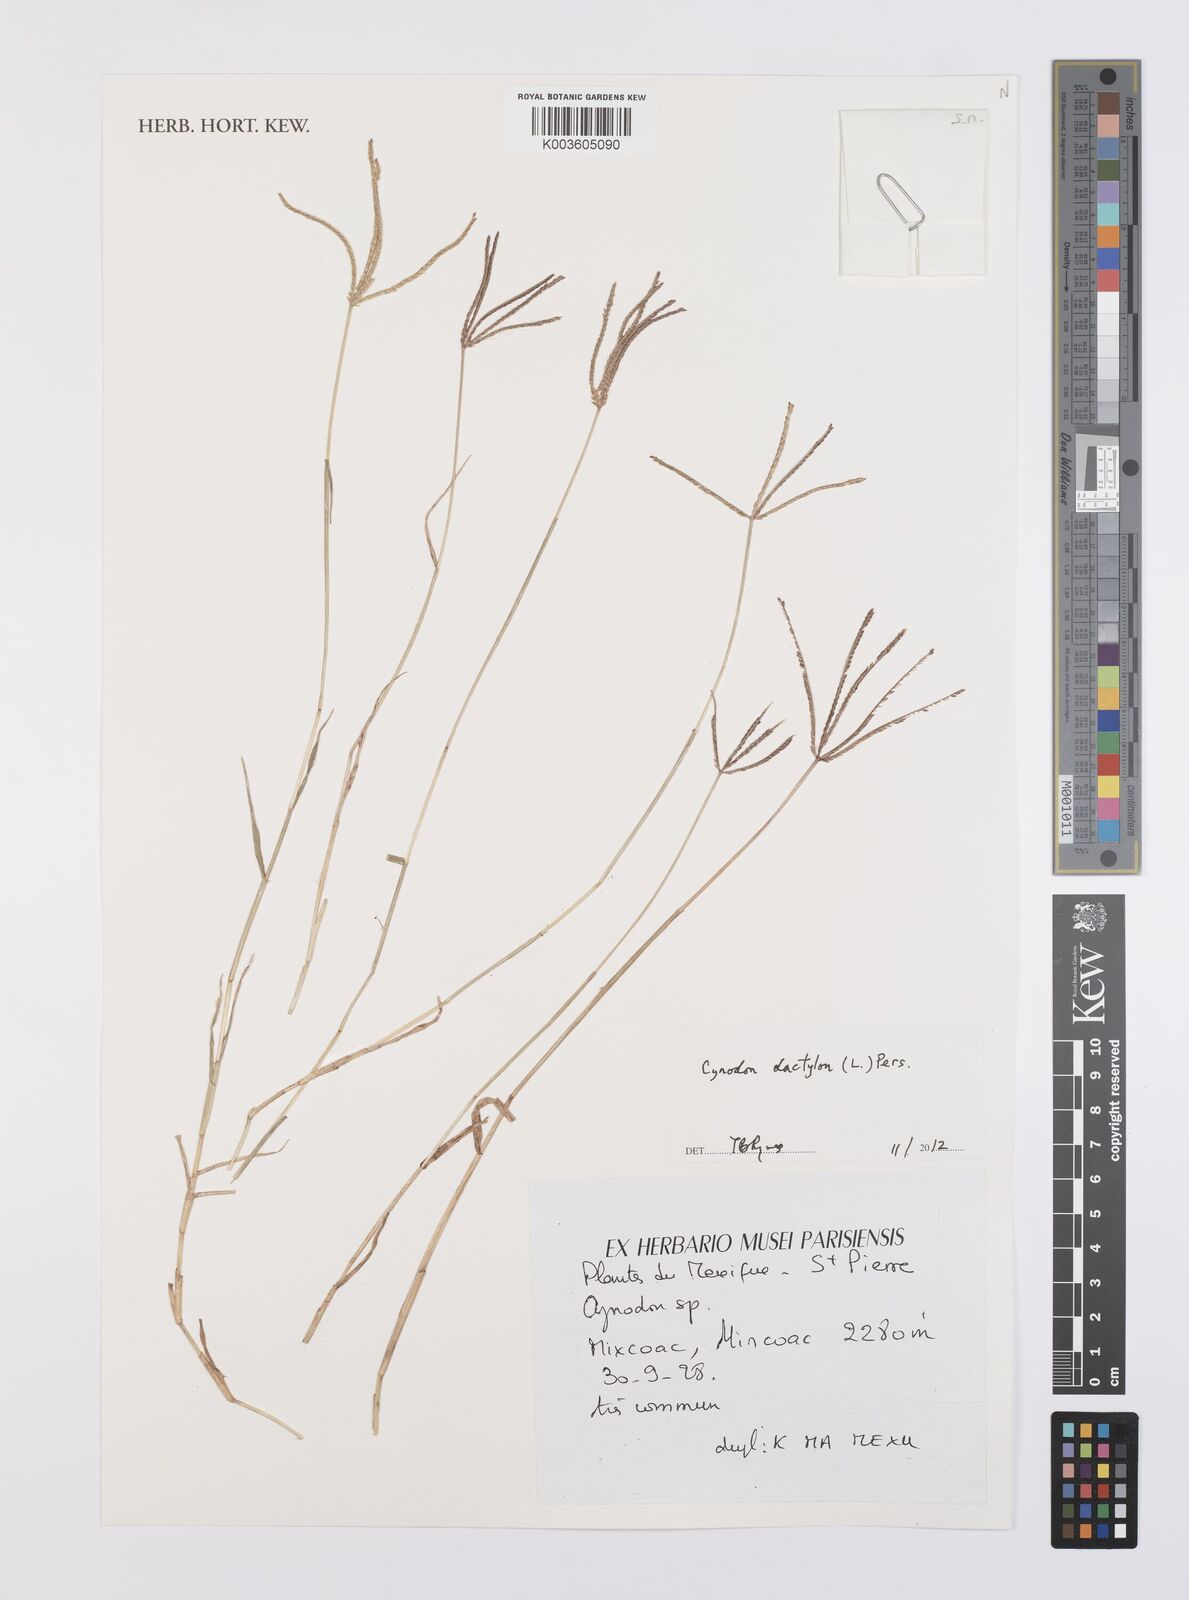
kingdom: Plantae
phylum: Tracheophyta
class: Liliopsida
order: Poales
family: Poaceae
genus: Cynodon
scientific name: Cynodon dactylon
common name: Bermuda grass
